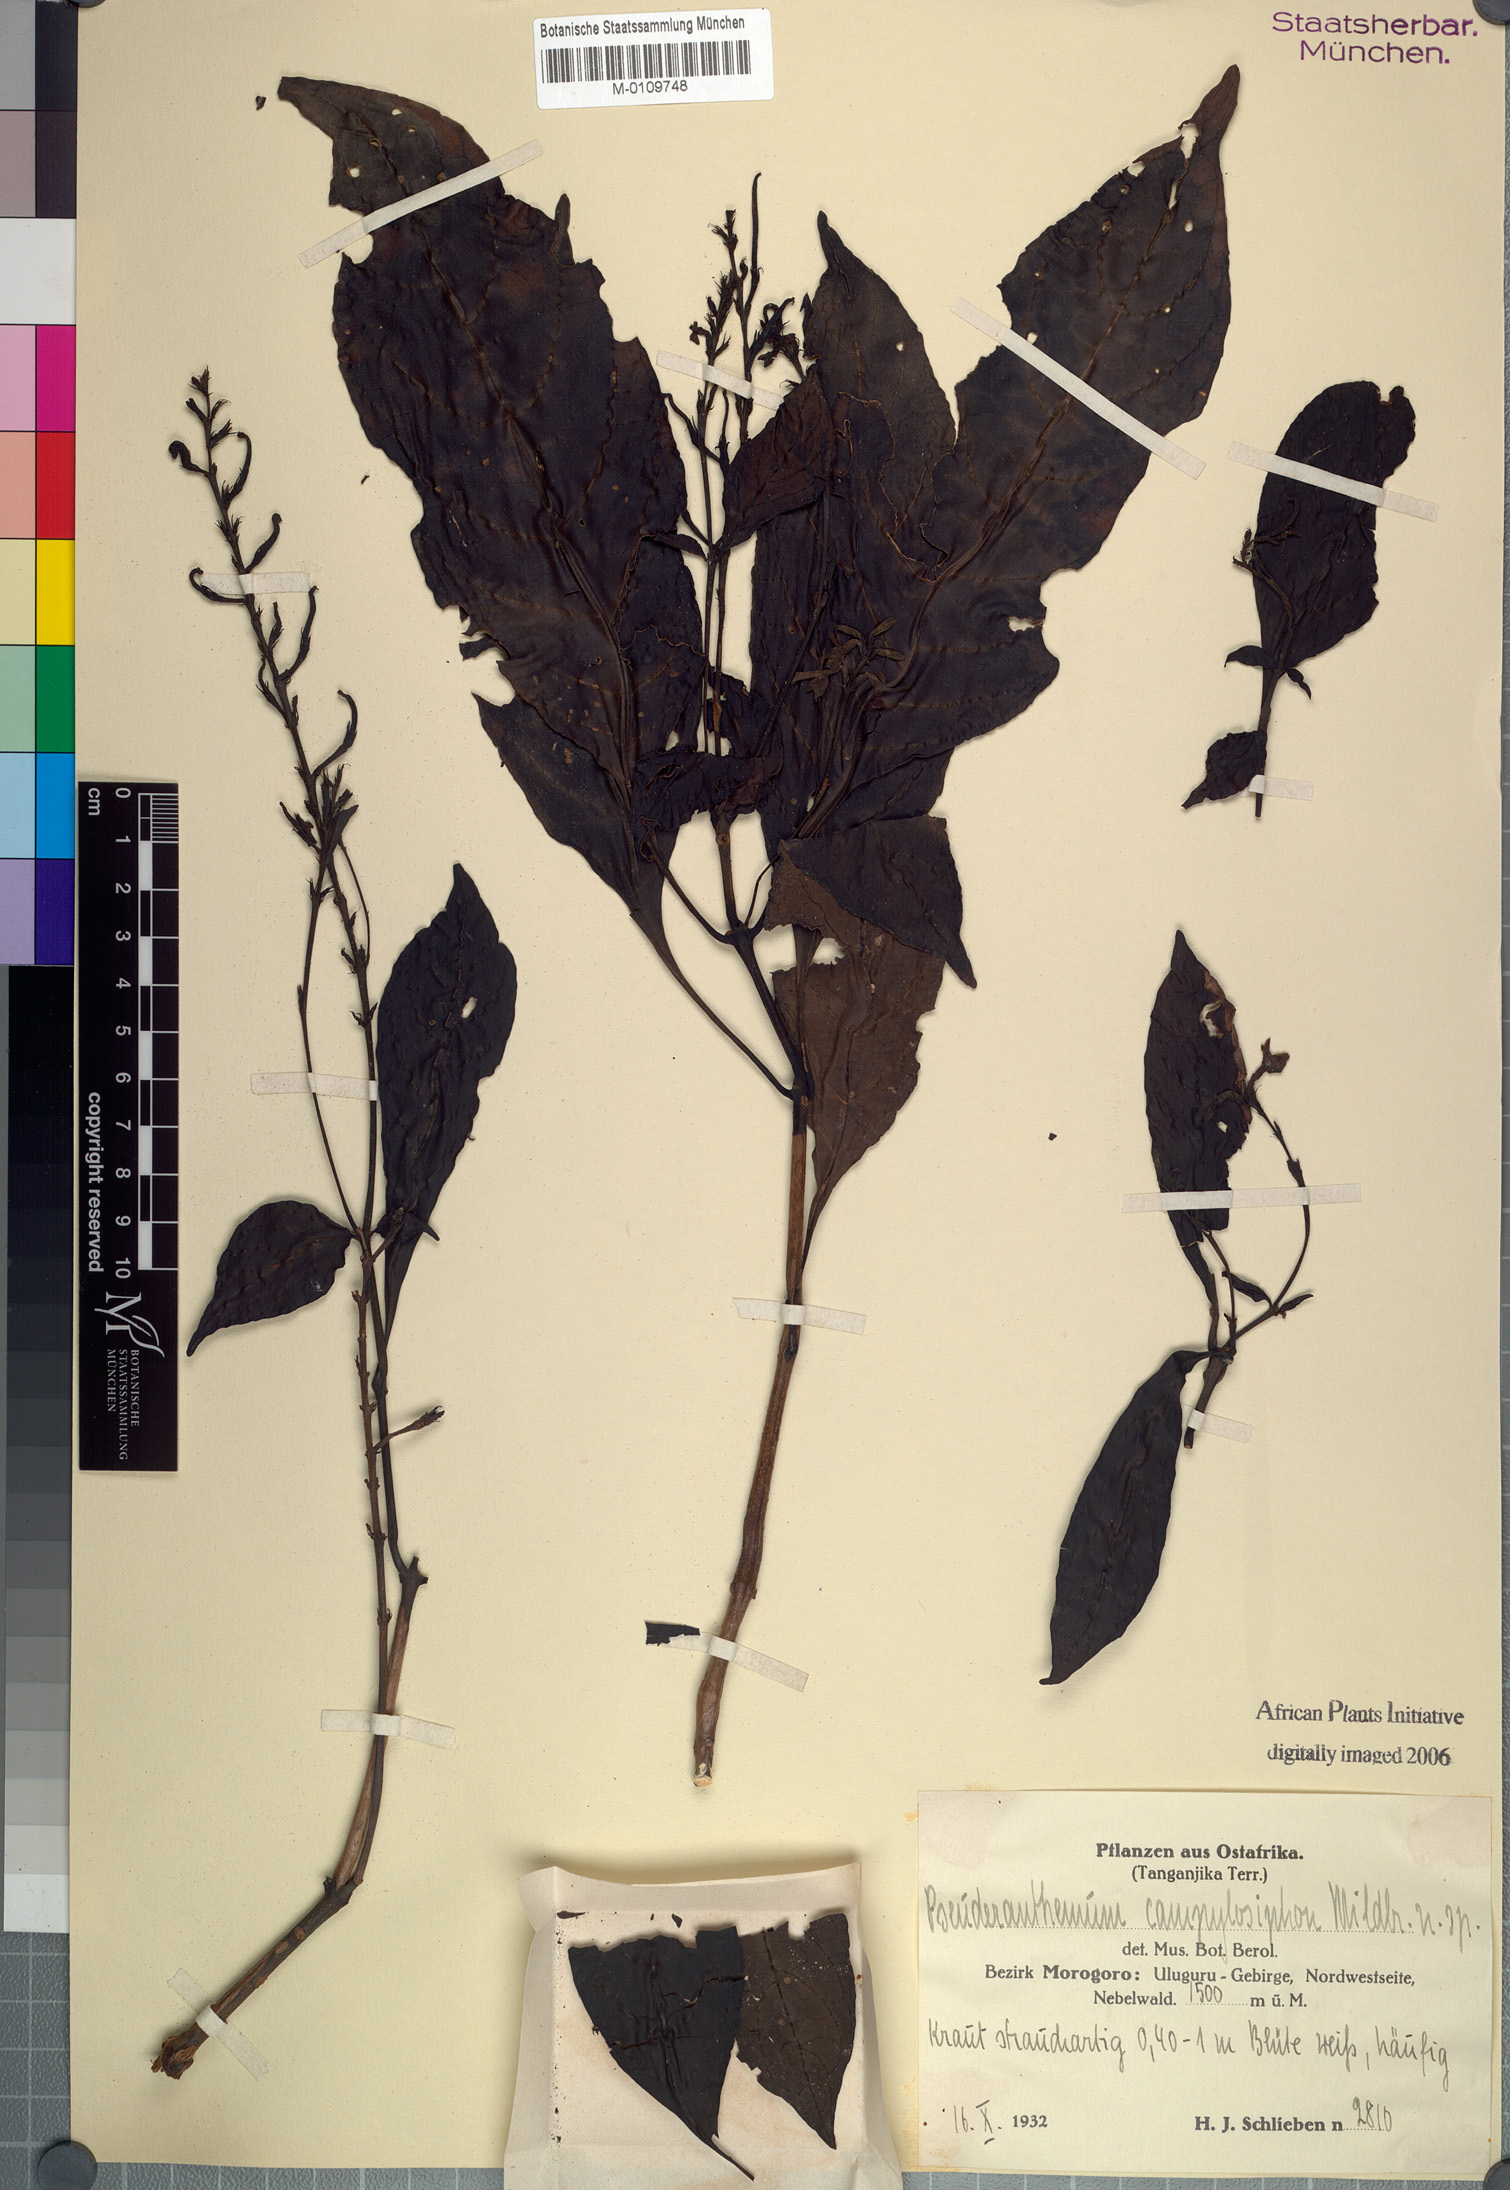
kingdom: Plantae
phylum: Tracheophyta
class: Magnoliopsida
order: Lamiales
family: Acanthaceae
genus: Pseuderanthemum
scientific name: Pseuderanthemum campylosiphon
